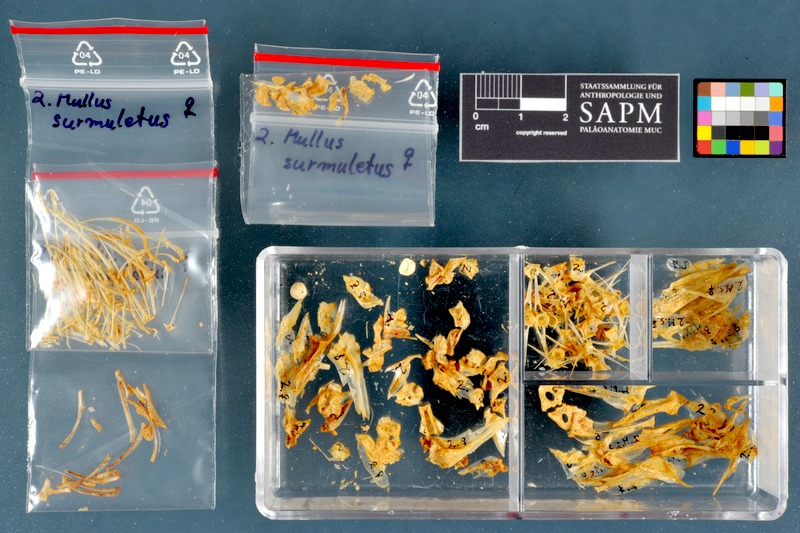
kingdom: Animalia
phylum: Chordata
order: Perciformes
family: Mullidae
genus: Mullus
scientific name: Mullus surmuletus
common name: Red mullet
